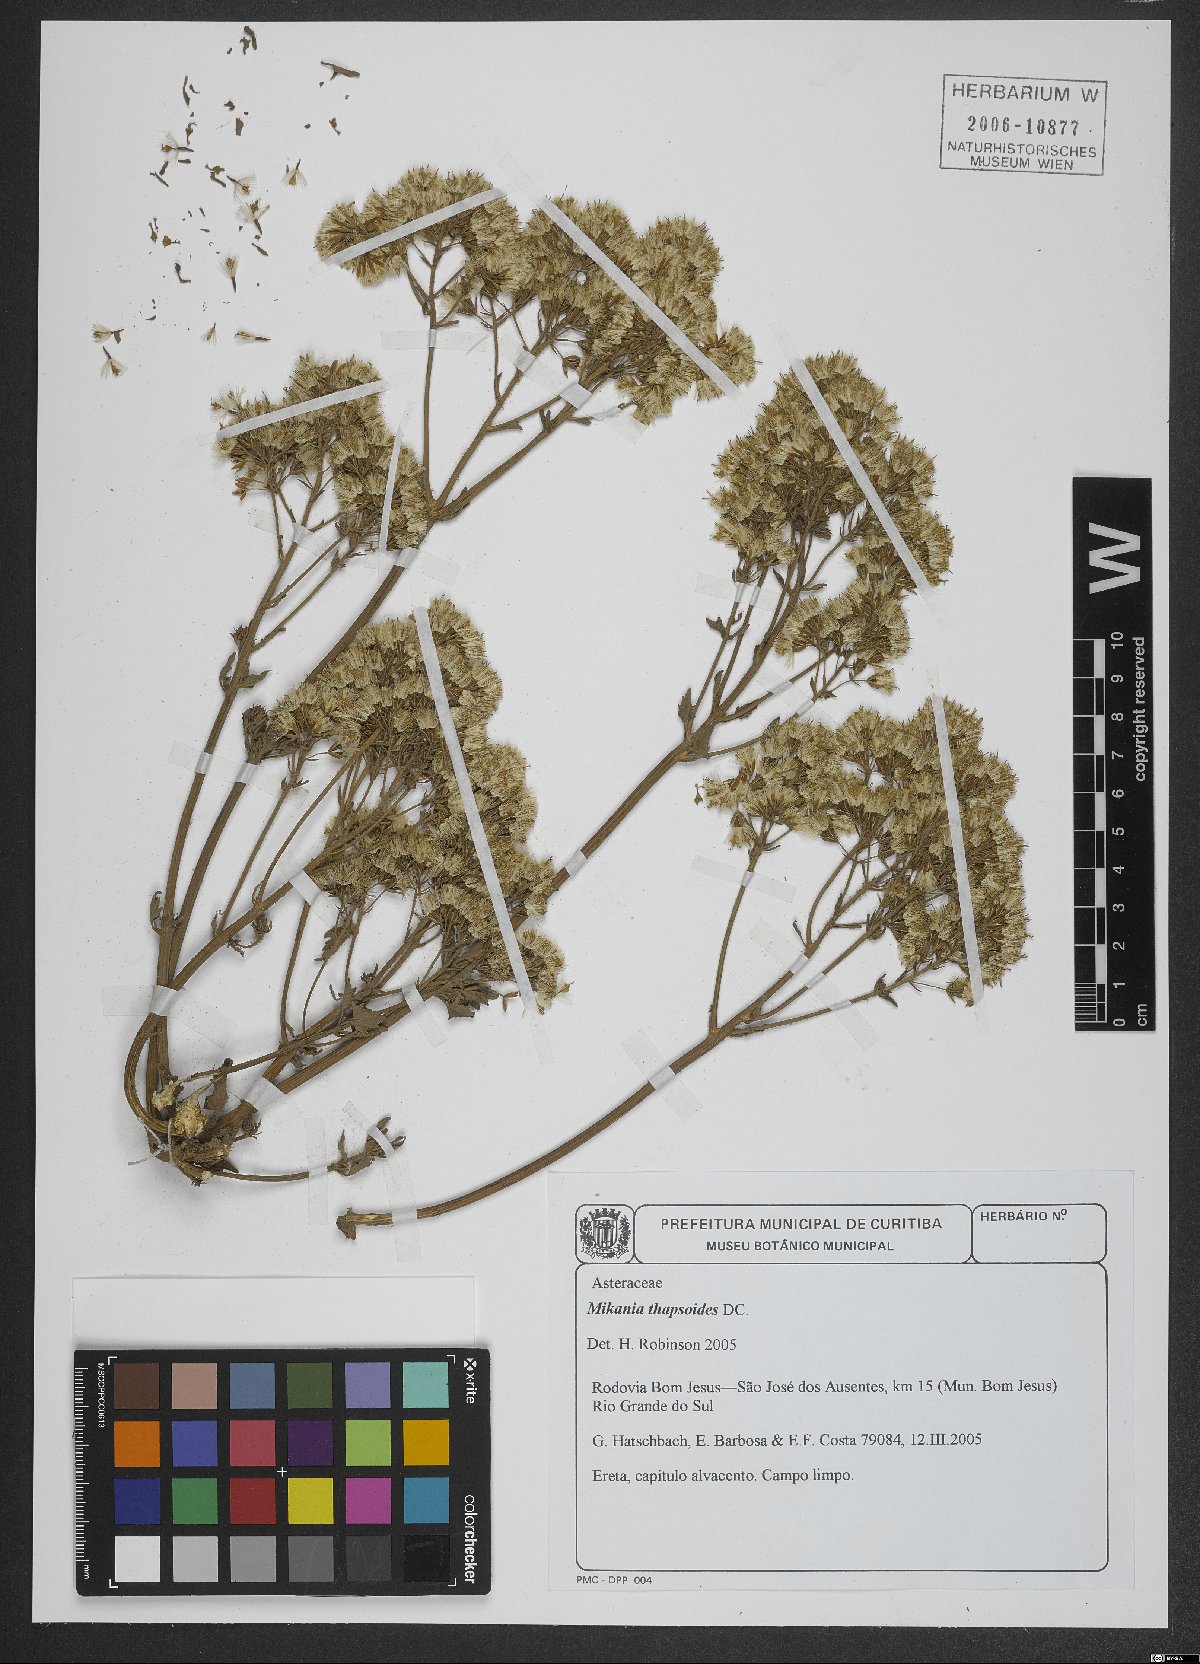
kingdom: Plantae
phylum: Tracheophyta
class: Magnoliopsida
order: Asterales
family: Asteraceae
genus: Mikania
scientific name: Mikania thapsoides
